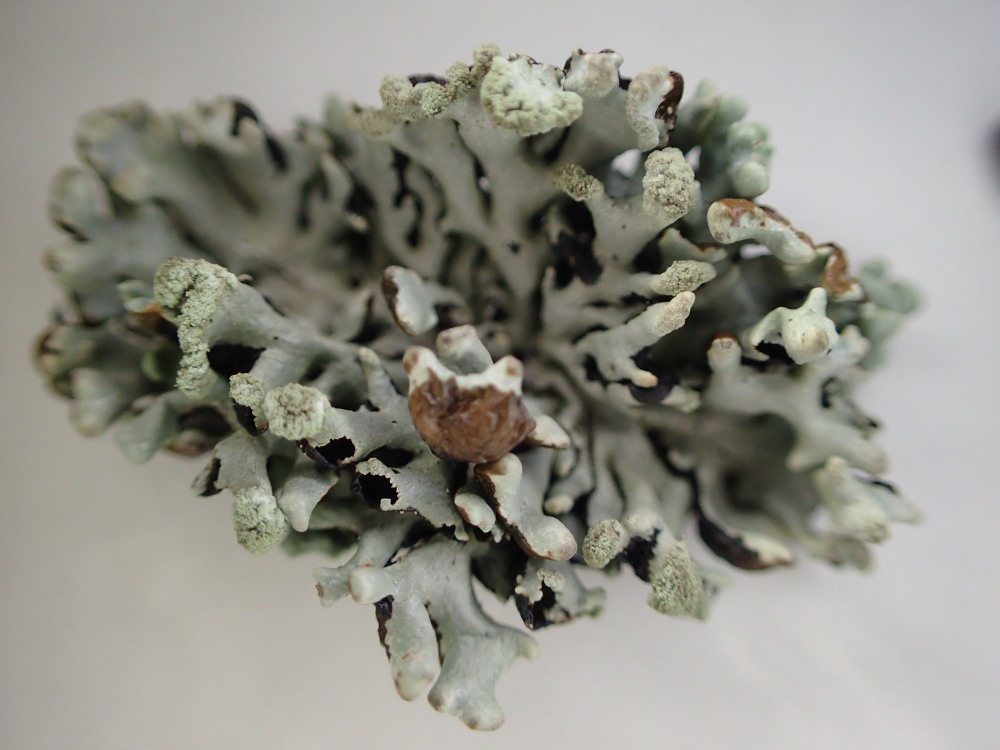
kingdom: Fungi
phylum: Ascomycota
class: Lecanoromycetes
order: Lecanorales
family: Parmeliaceae
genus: Hypogymnia
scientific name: Hypogymnia tubulosa
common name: finger-kvistlav
